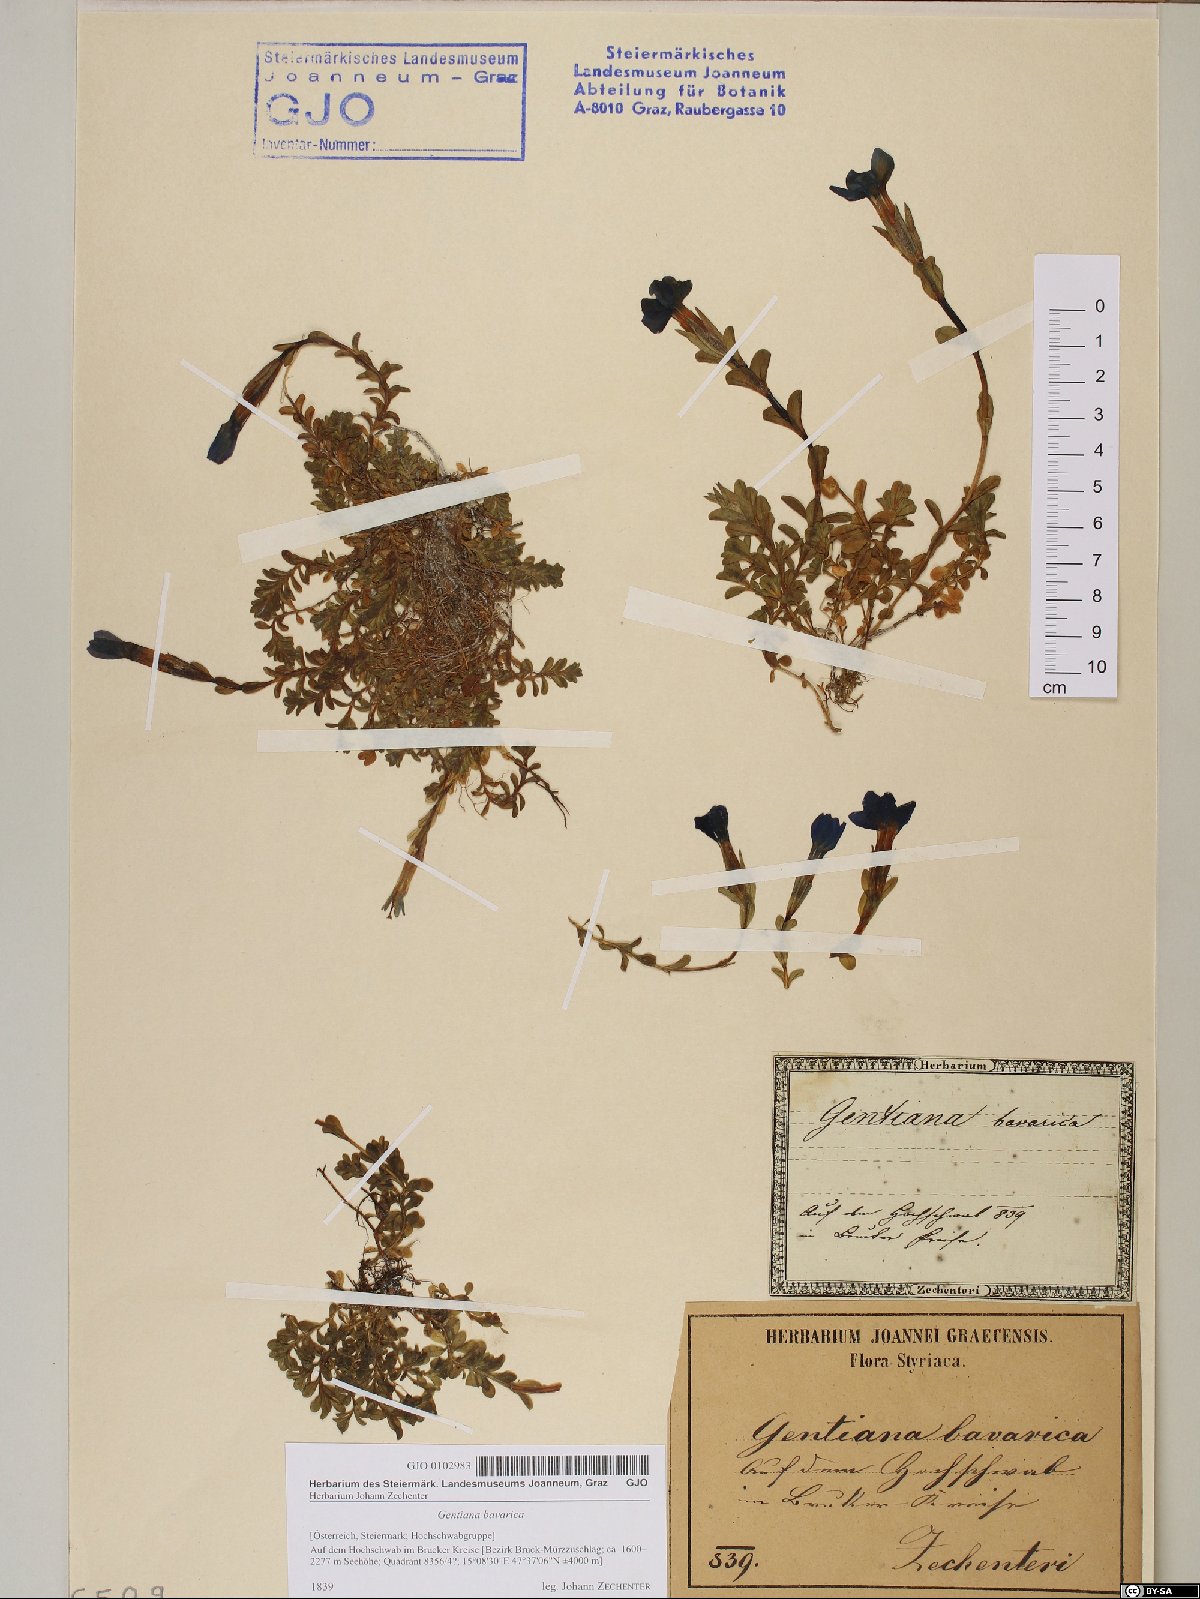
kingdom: Plantae
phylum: Tracheophyta
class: Magnoliopsida
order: Gentianales
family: Gentianaceae
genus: Gentiana
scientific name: Gentiana bavarica
